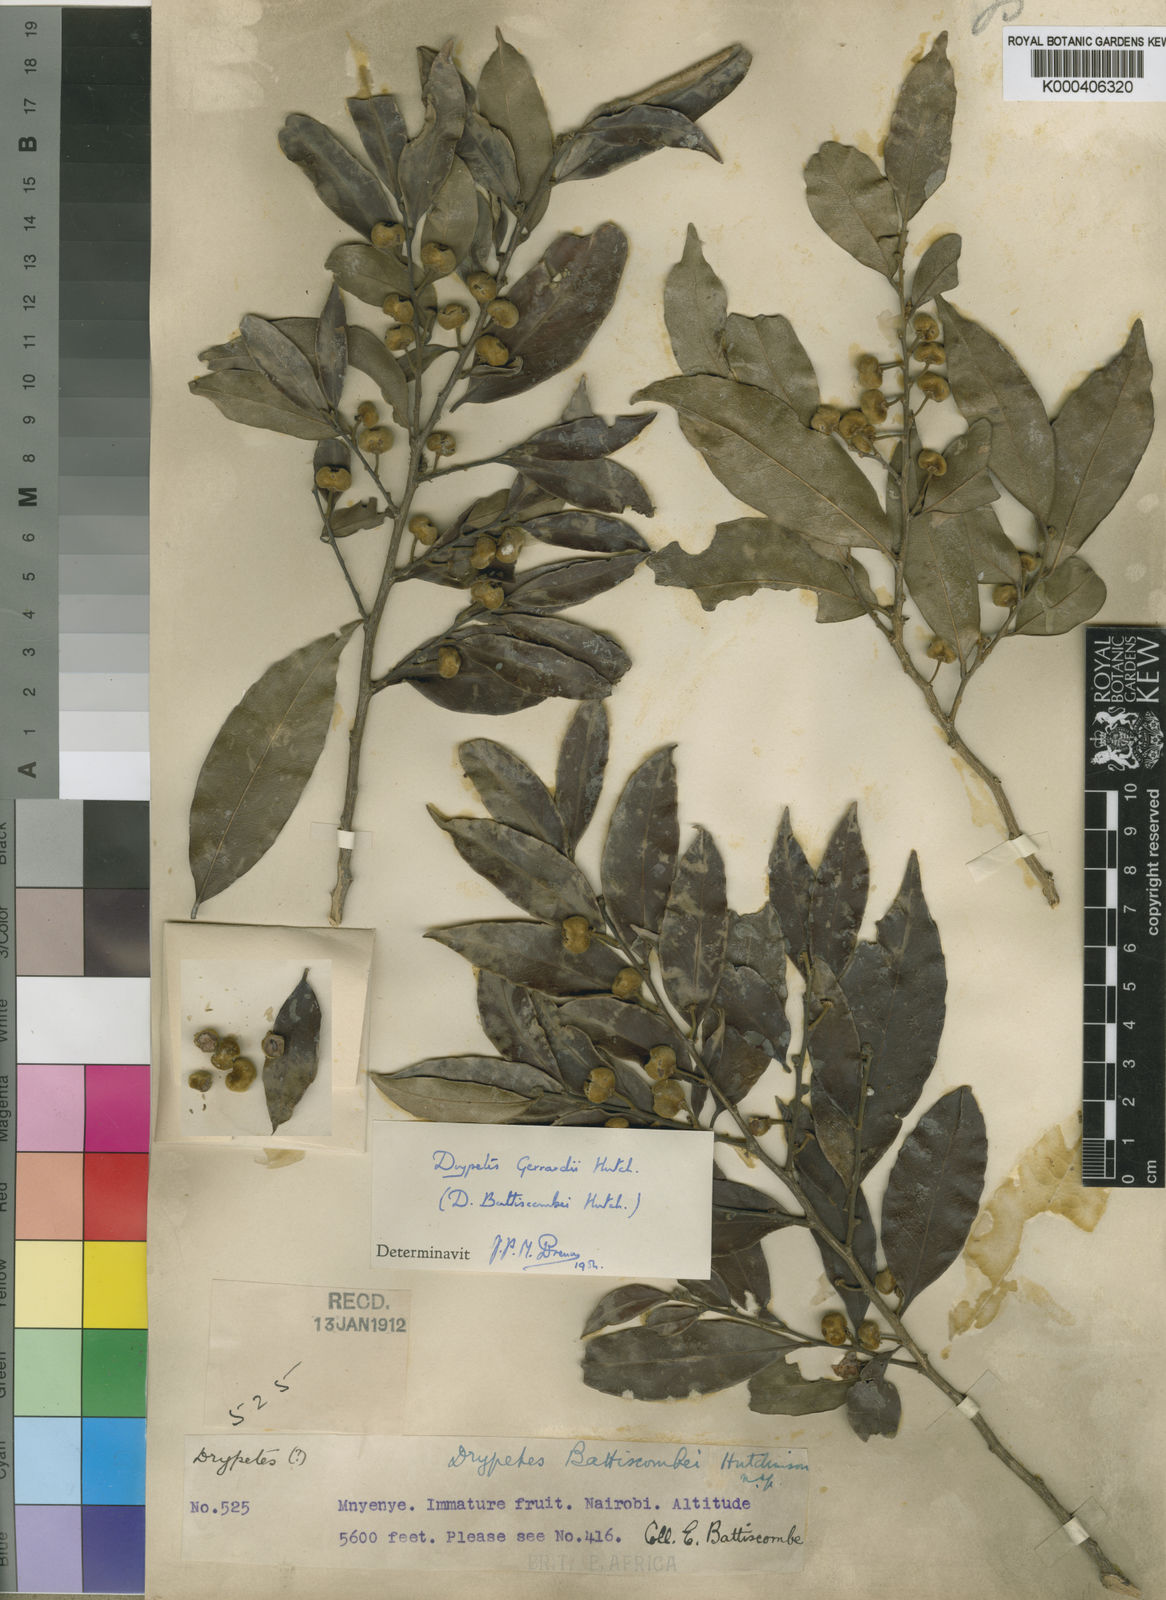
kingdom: Plantae
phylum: Tracheophyta
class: Magnoliopsida
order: Malpighiales
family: Putranjivaceae
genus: Drypetes
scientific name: Drypetes gerrardii
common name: Forest ironplum
